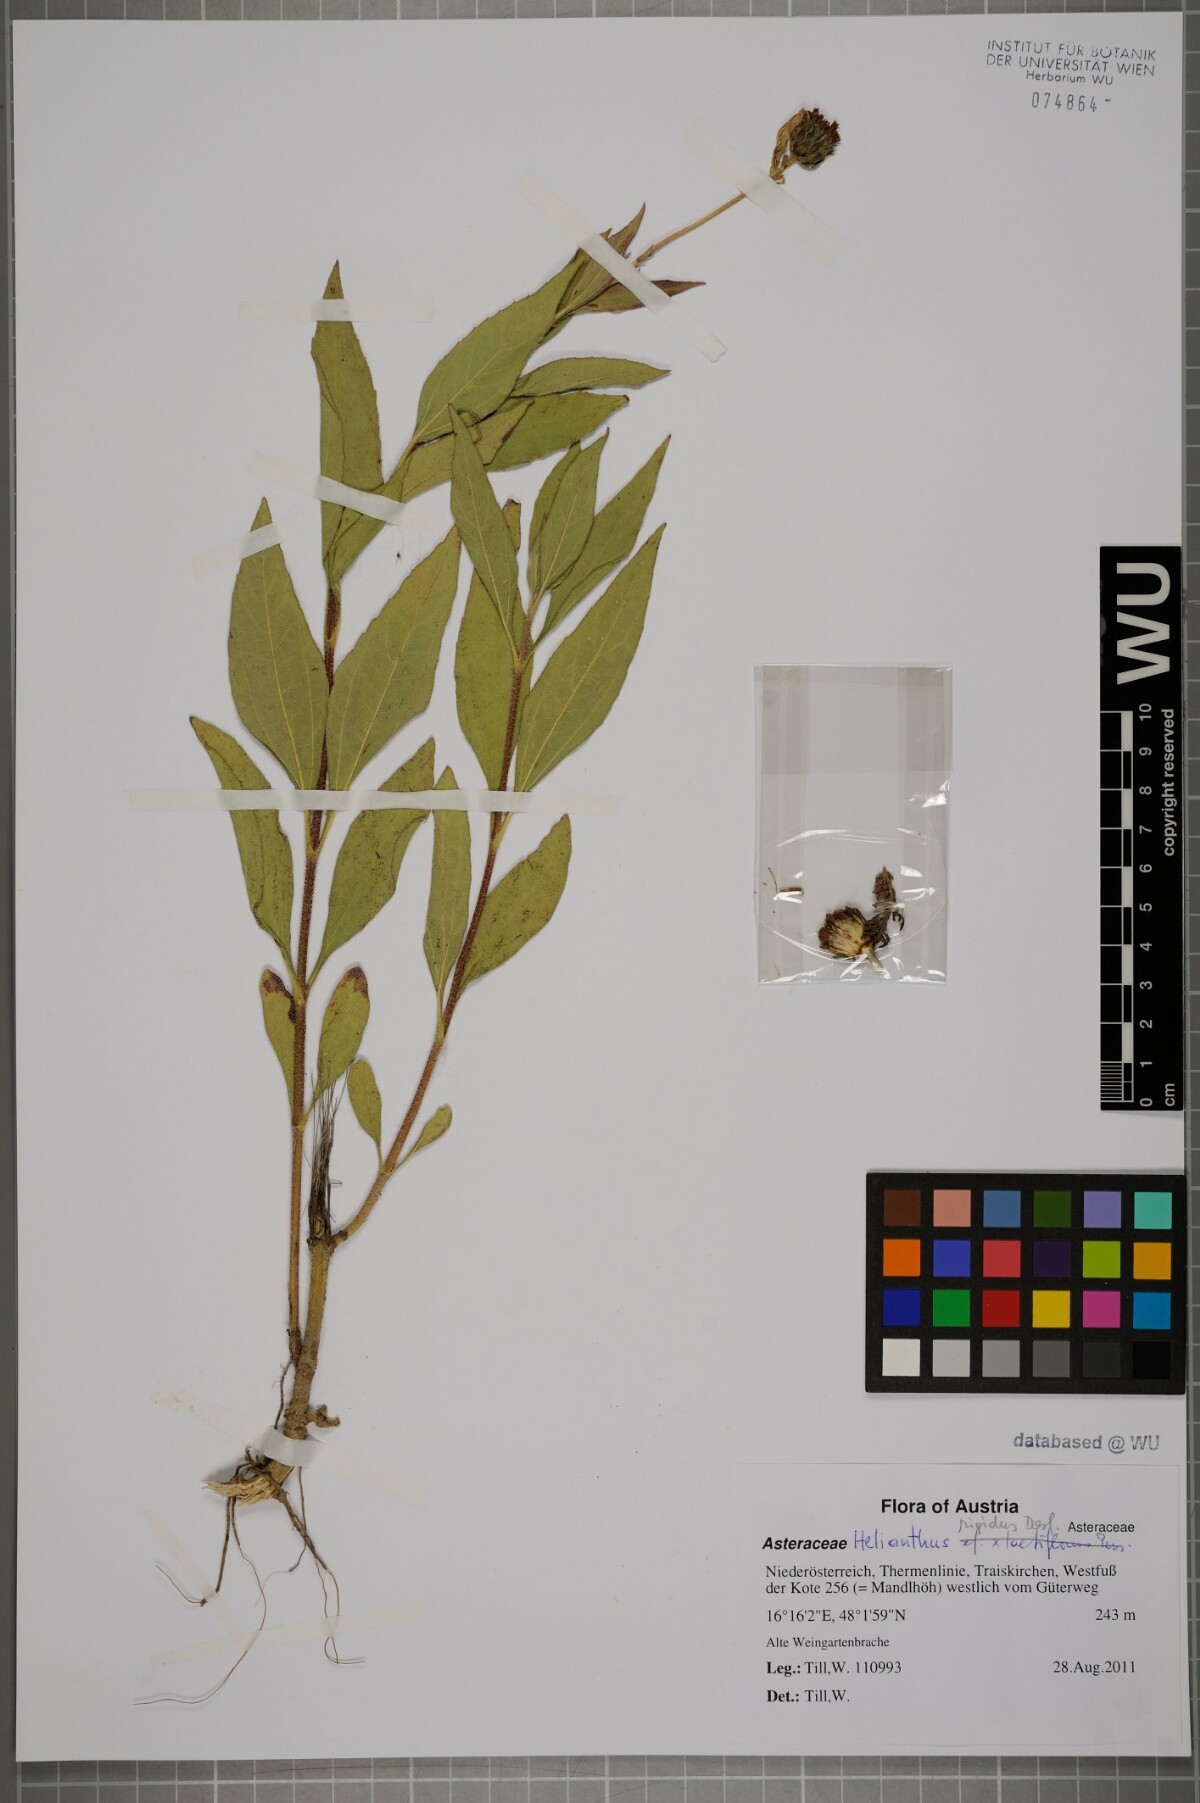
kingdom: Plantae
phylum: Tracheophyta
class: Magnoliopsida
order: Asterales
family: Asteraceae
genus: Helianthus
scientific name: Helianthus pauciflorus
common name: Stiff sunflower
